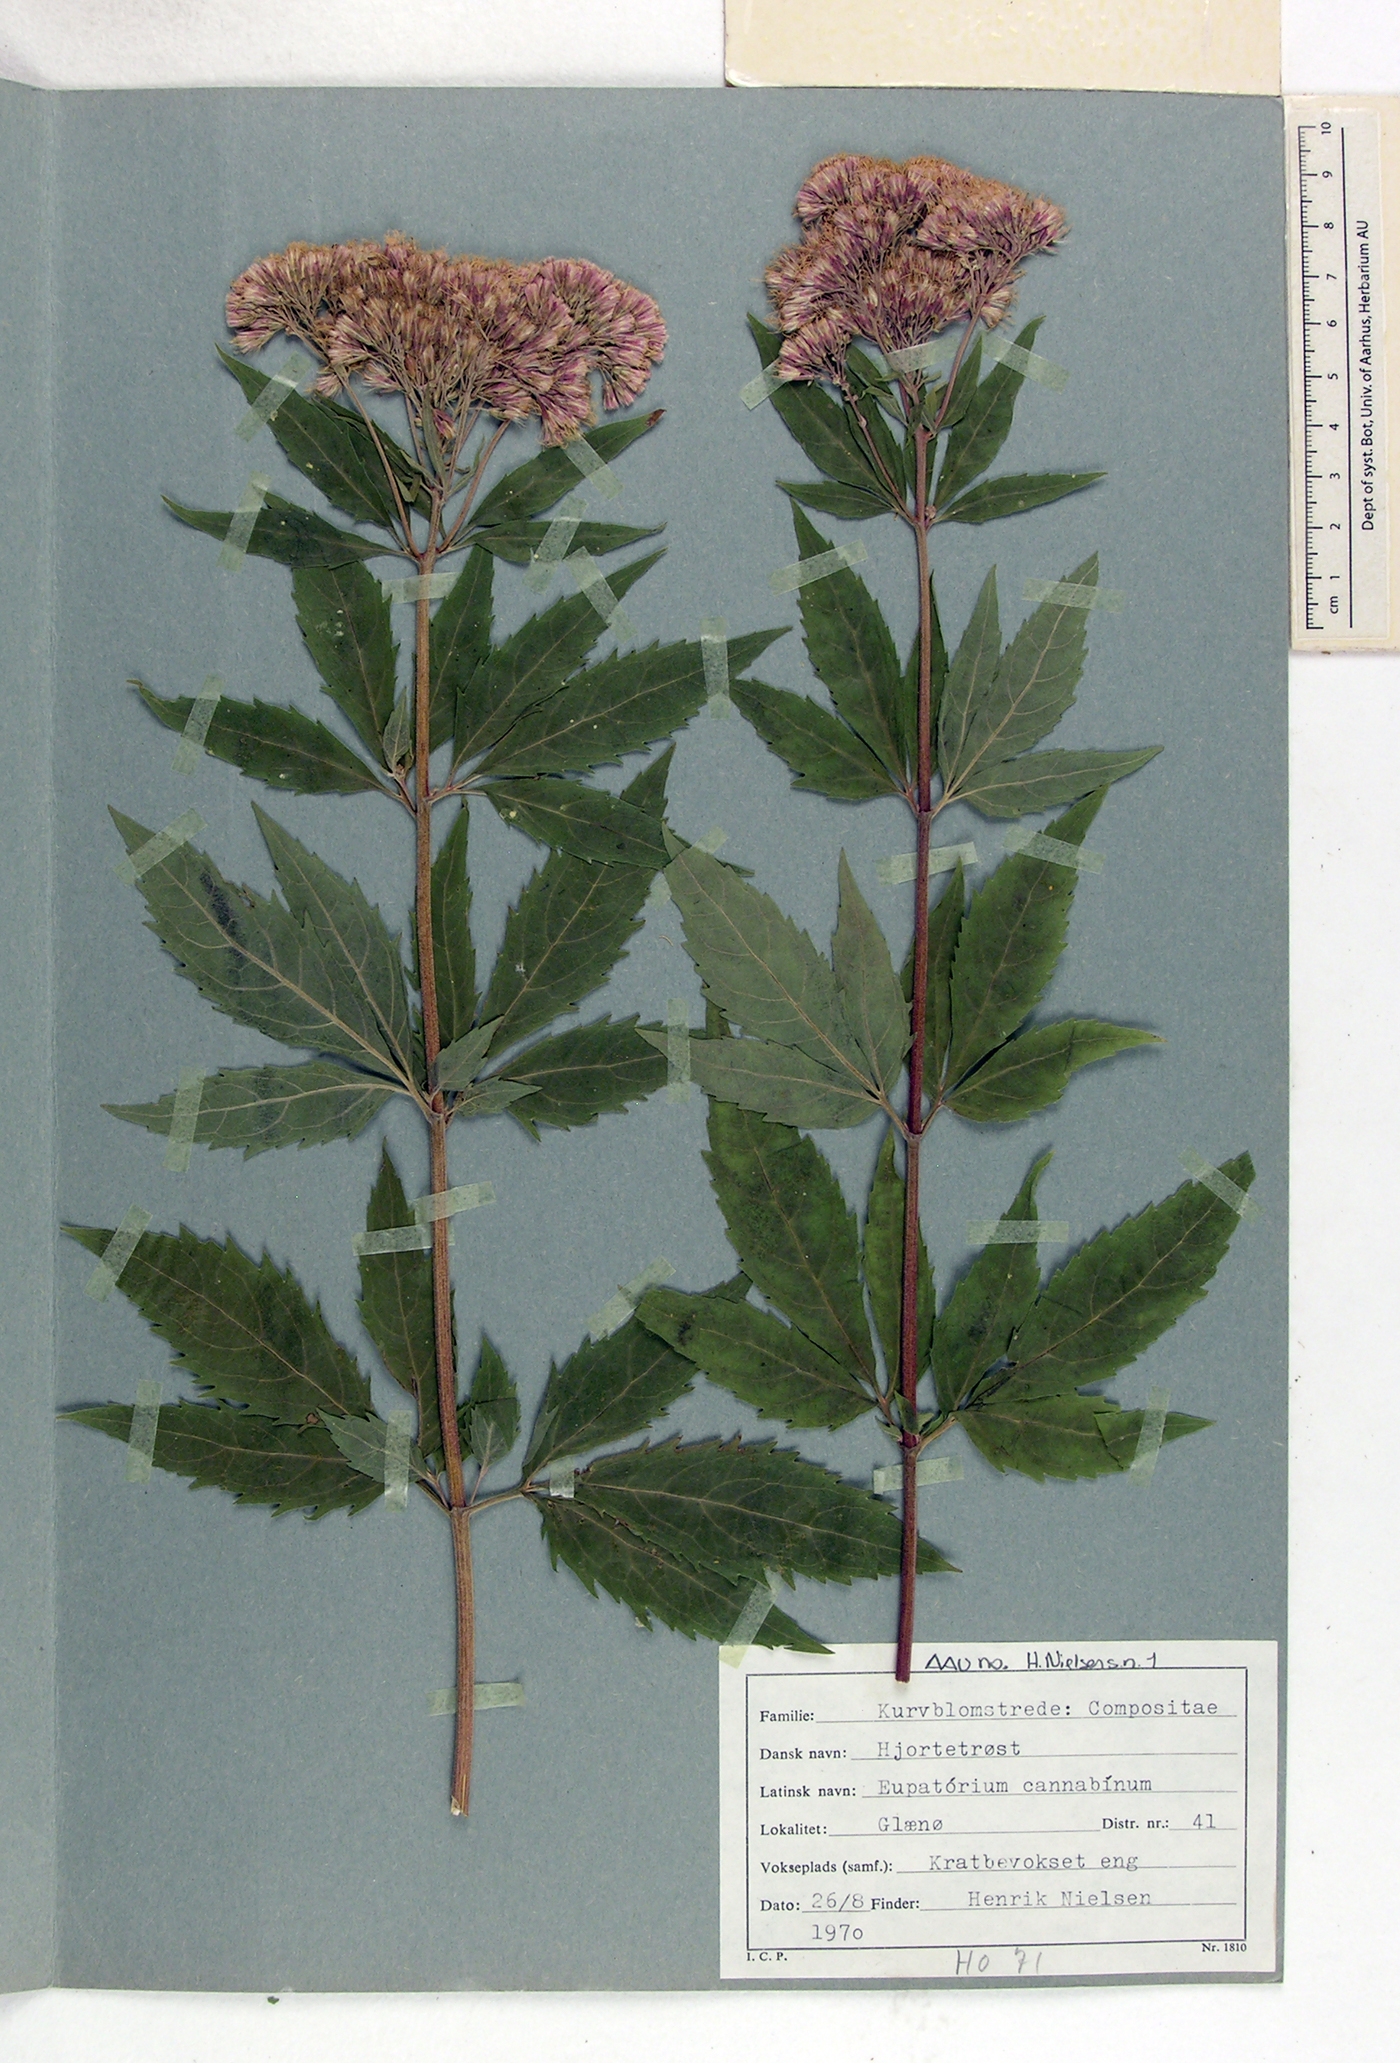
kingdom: Plantae
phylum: Tracheophyta
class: Magnoliopsida
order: Asterales
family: Asteraceae
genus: Eupatorium
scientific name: Eupatorium cannabinum
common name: Hemp-agrimony
